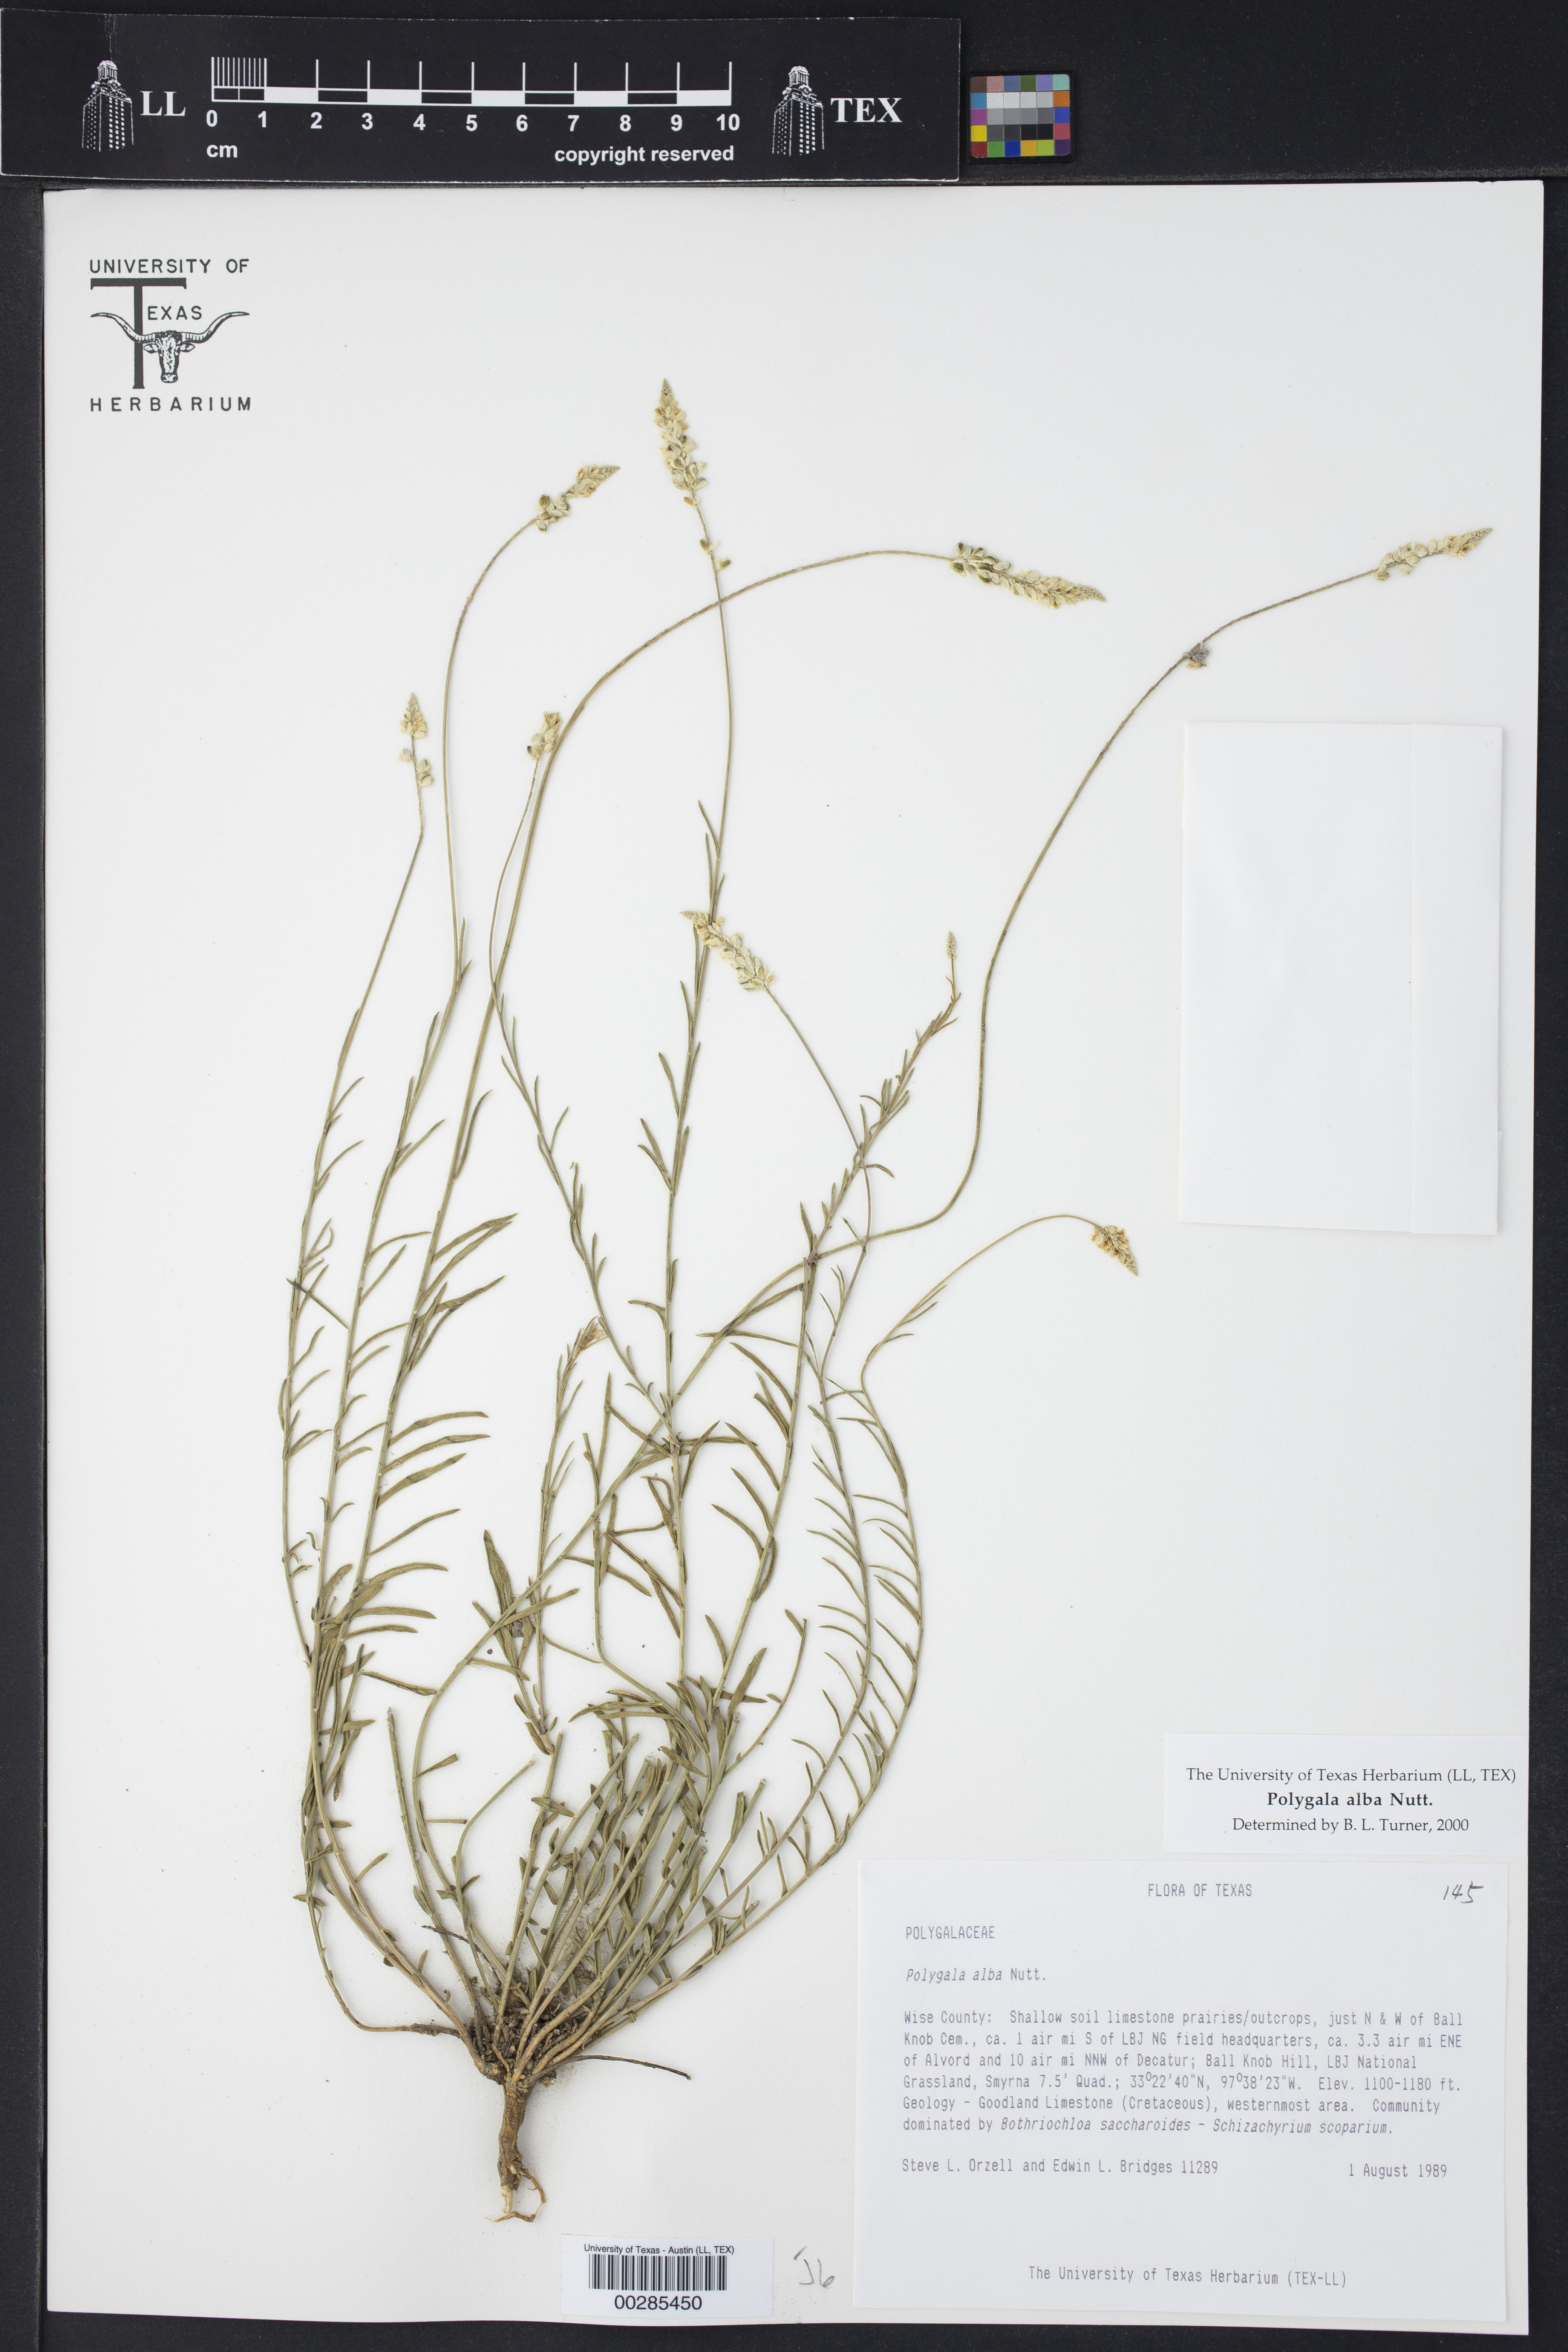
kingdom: Plantae
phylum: Tracheophyta
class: Magnoliopsida
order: Fabales
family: Polygalaceae
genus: Polygala
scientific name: Polygala alba
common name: White milkwort
